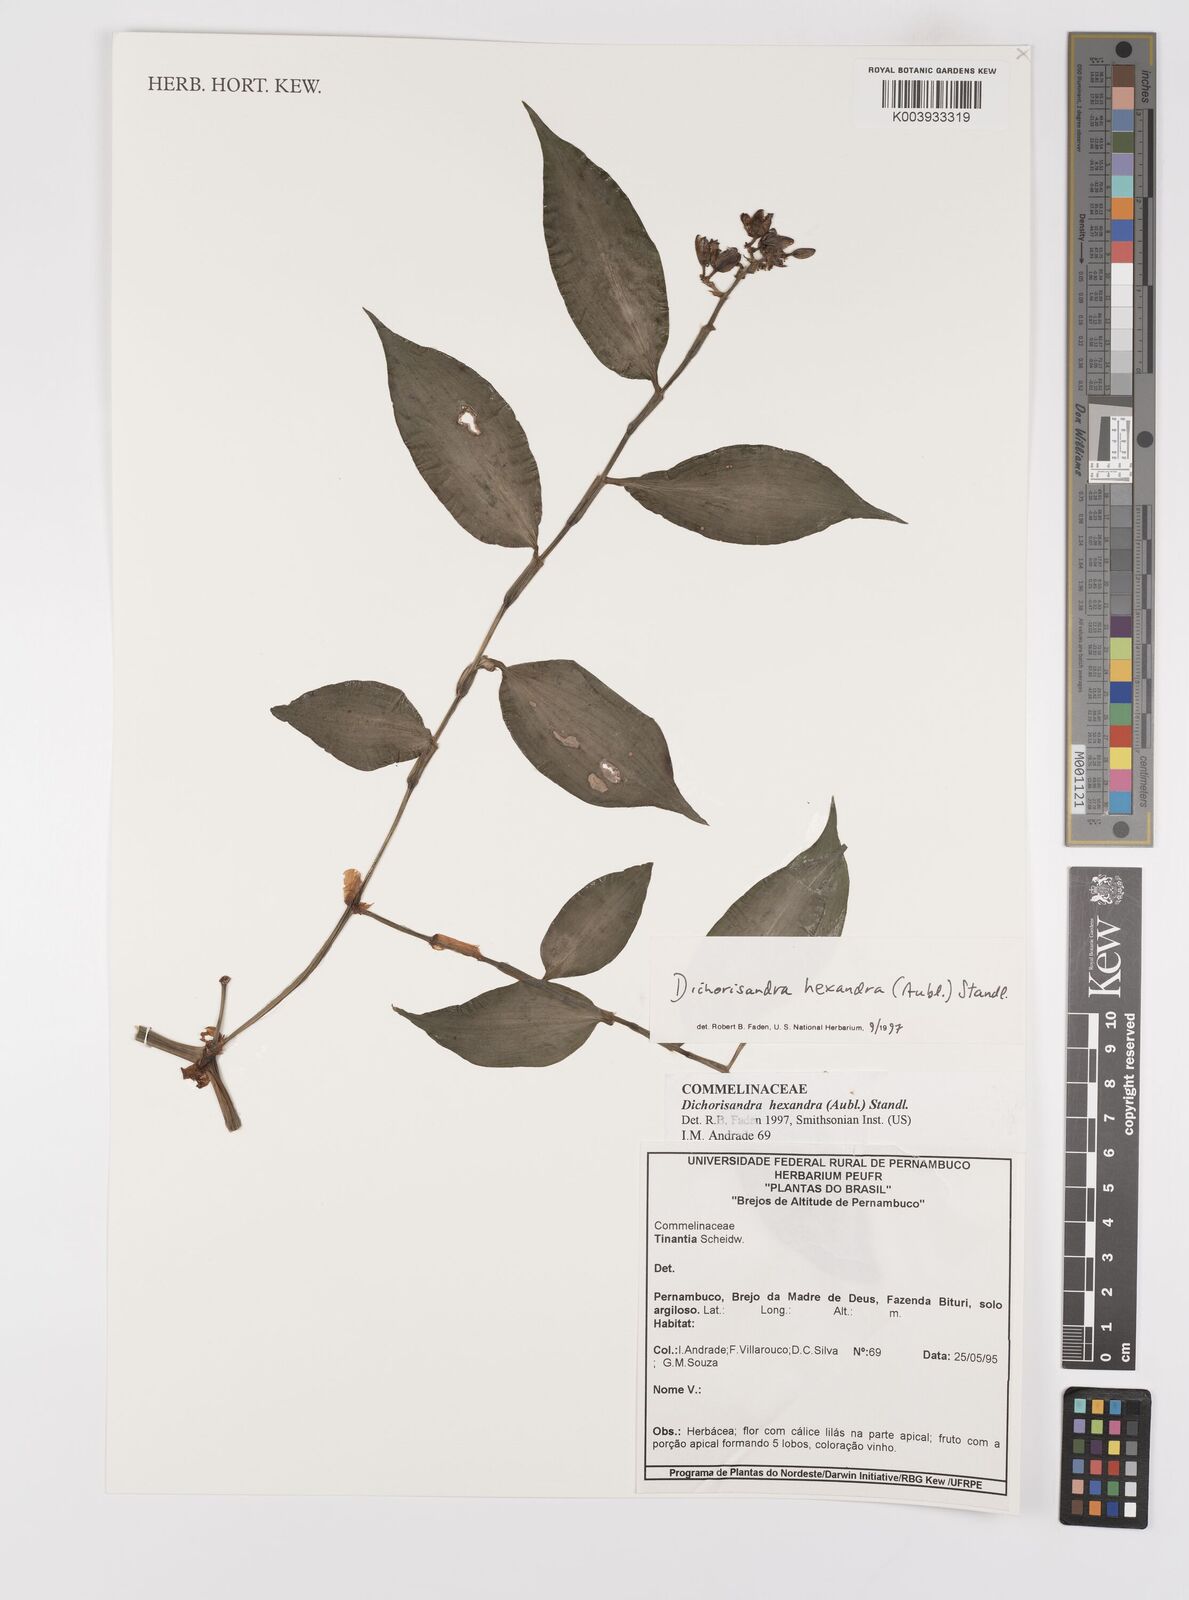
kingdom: Plantae
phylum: Tracheophyta
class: Liliopsida
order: Commelinales
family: Commelinaceae
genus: Dichorisandra
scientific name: Dichorisandra hexandra
